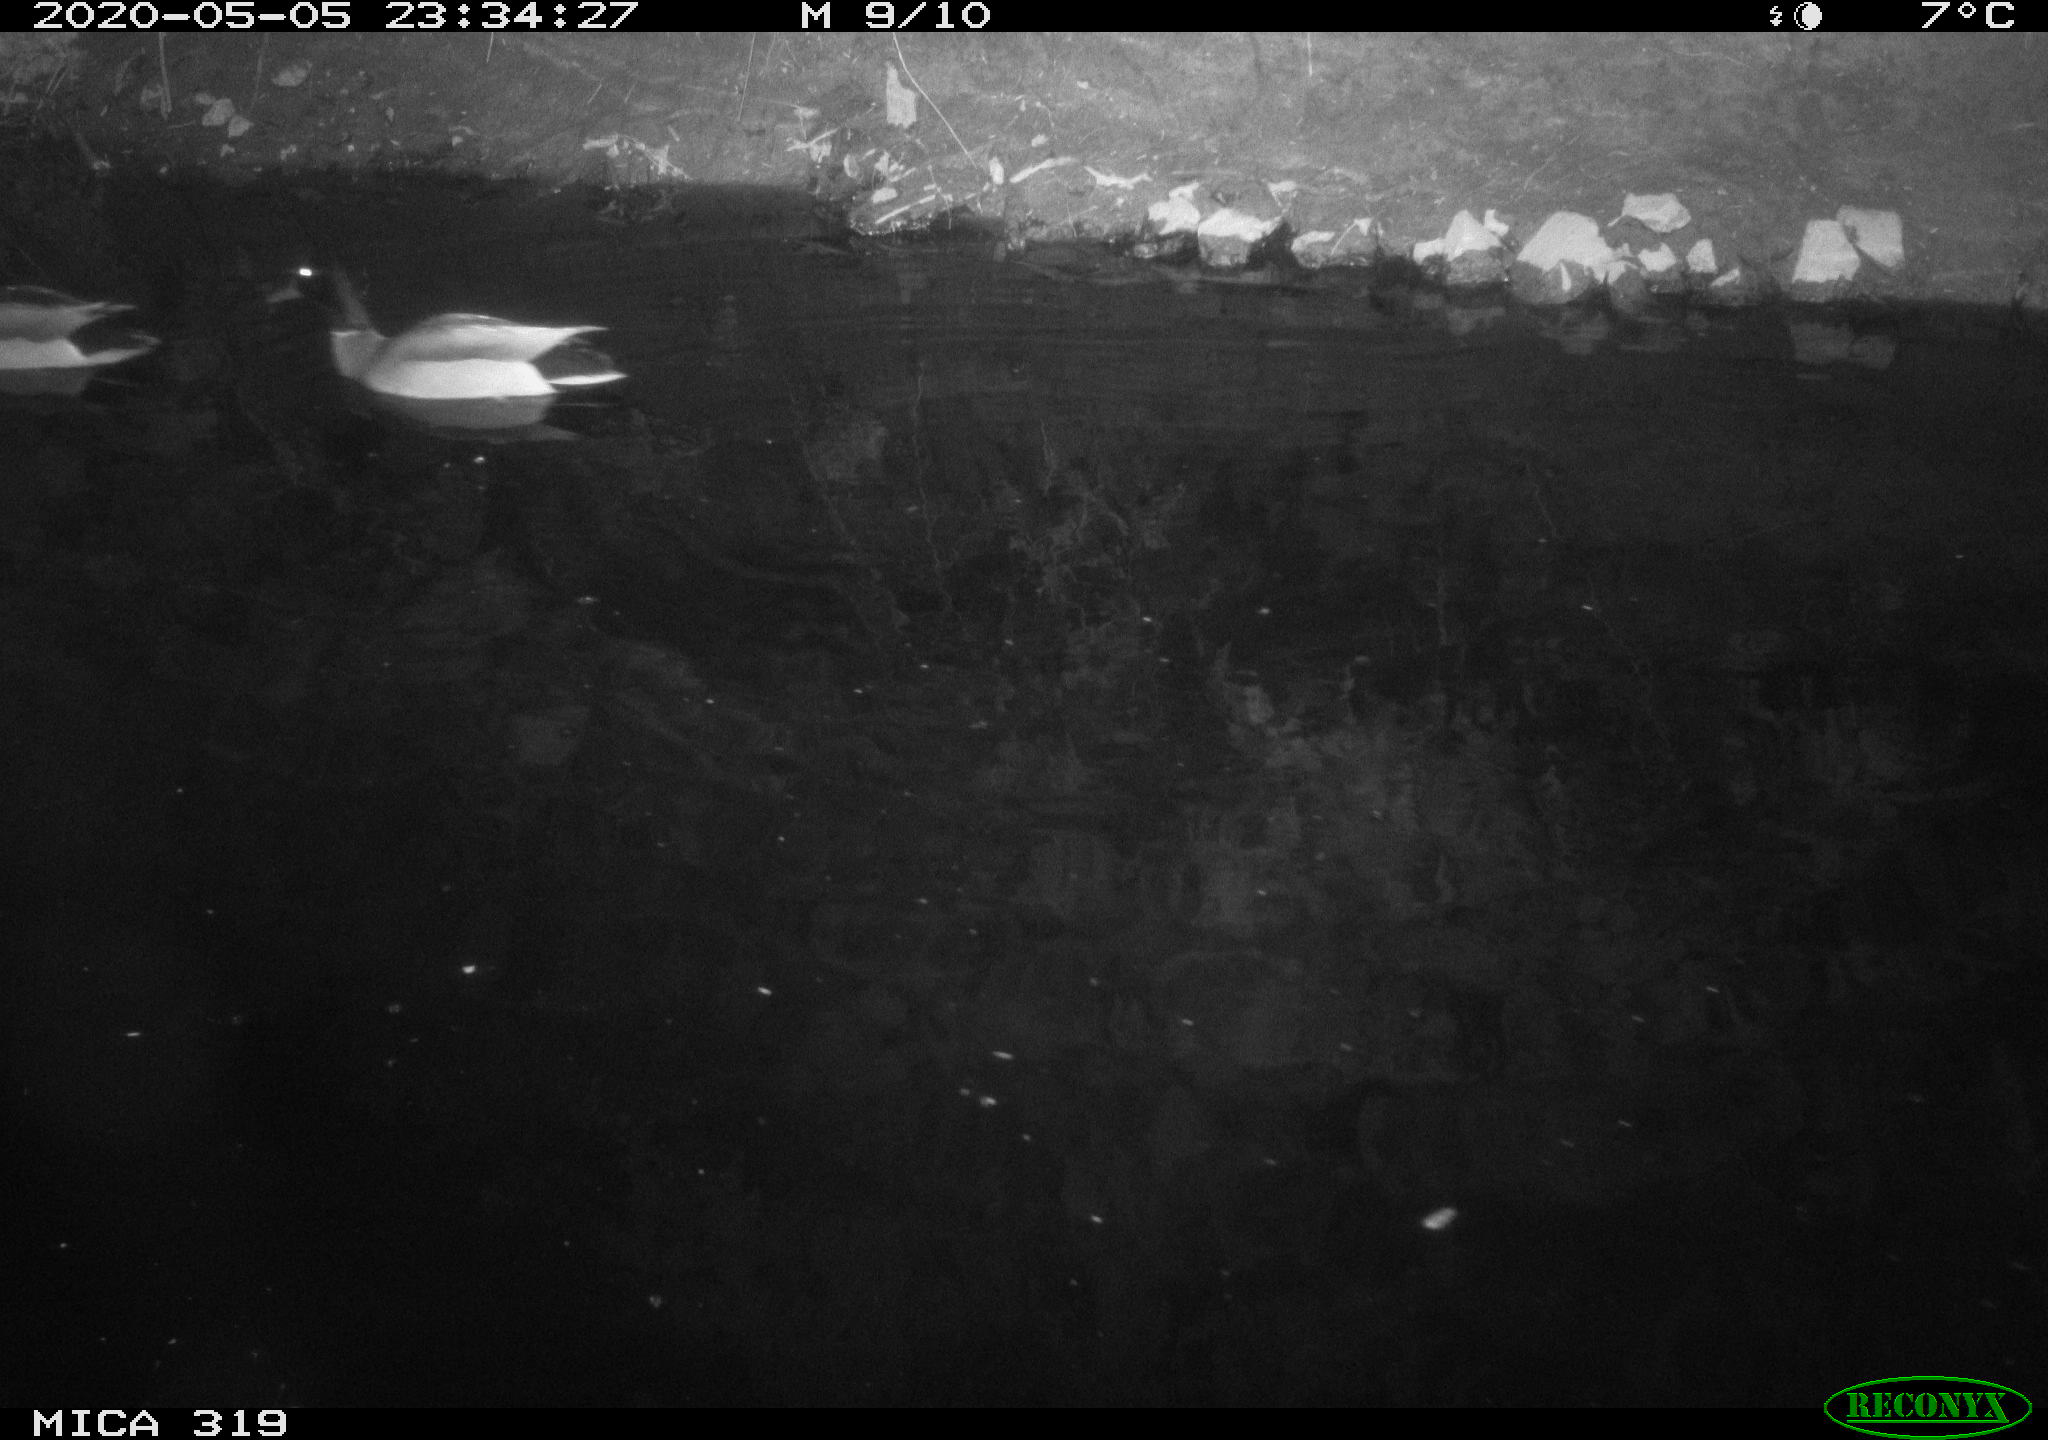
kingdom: Animalia
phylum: Chordata
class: Aves
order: Anseriformes
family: Anatidae
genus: Anas
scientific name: Anas platyrhynchos
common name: Mallard
